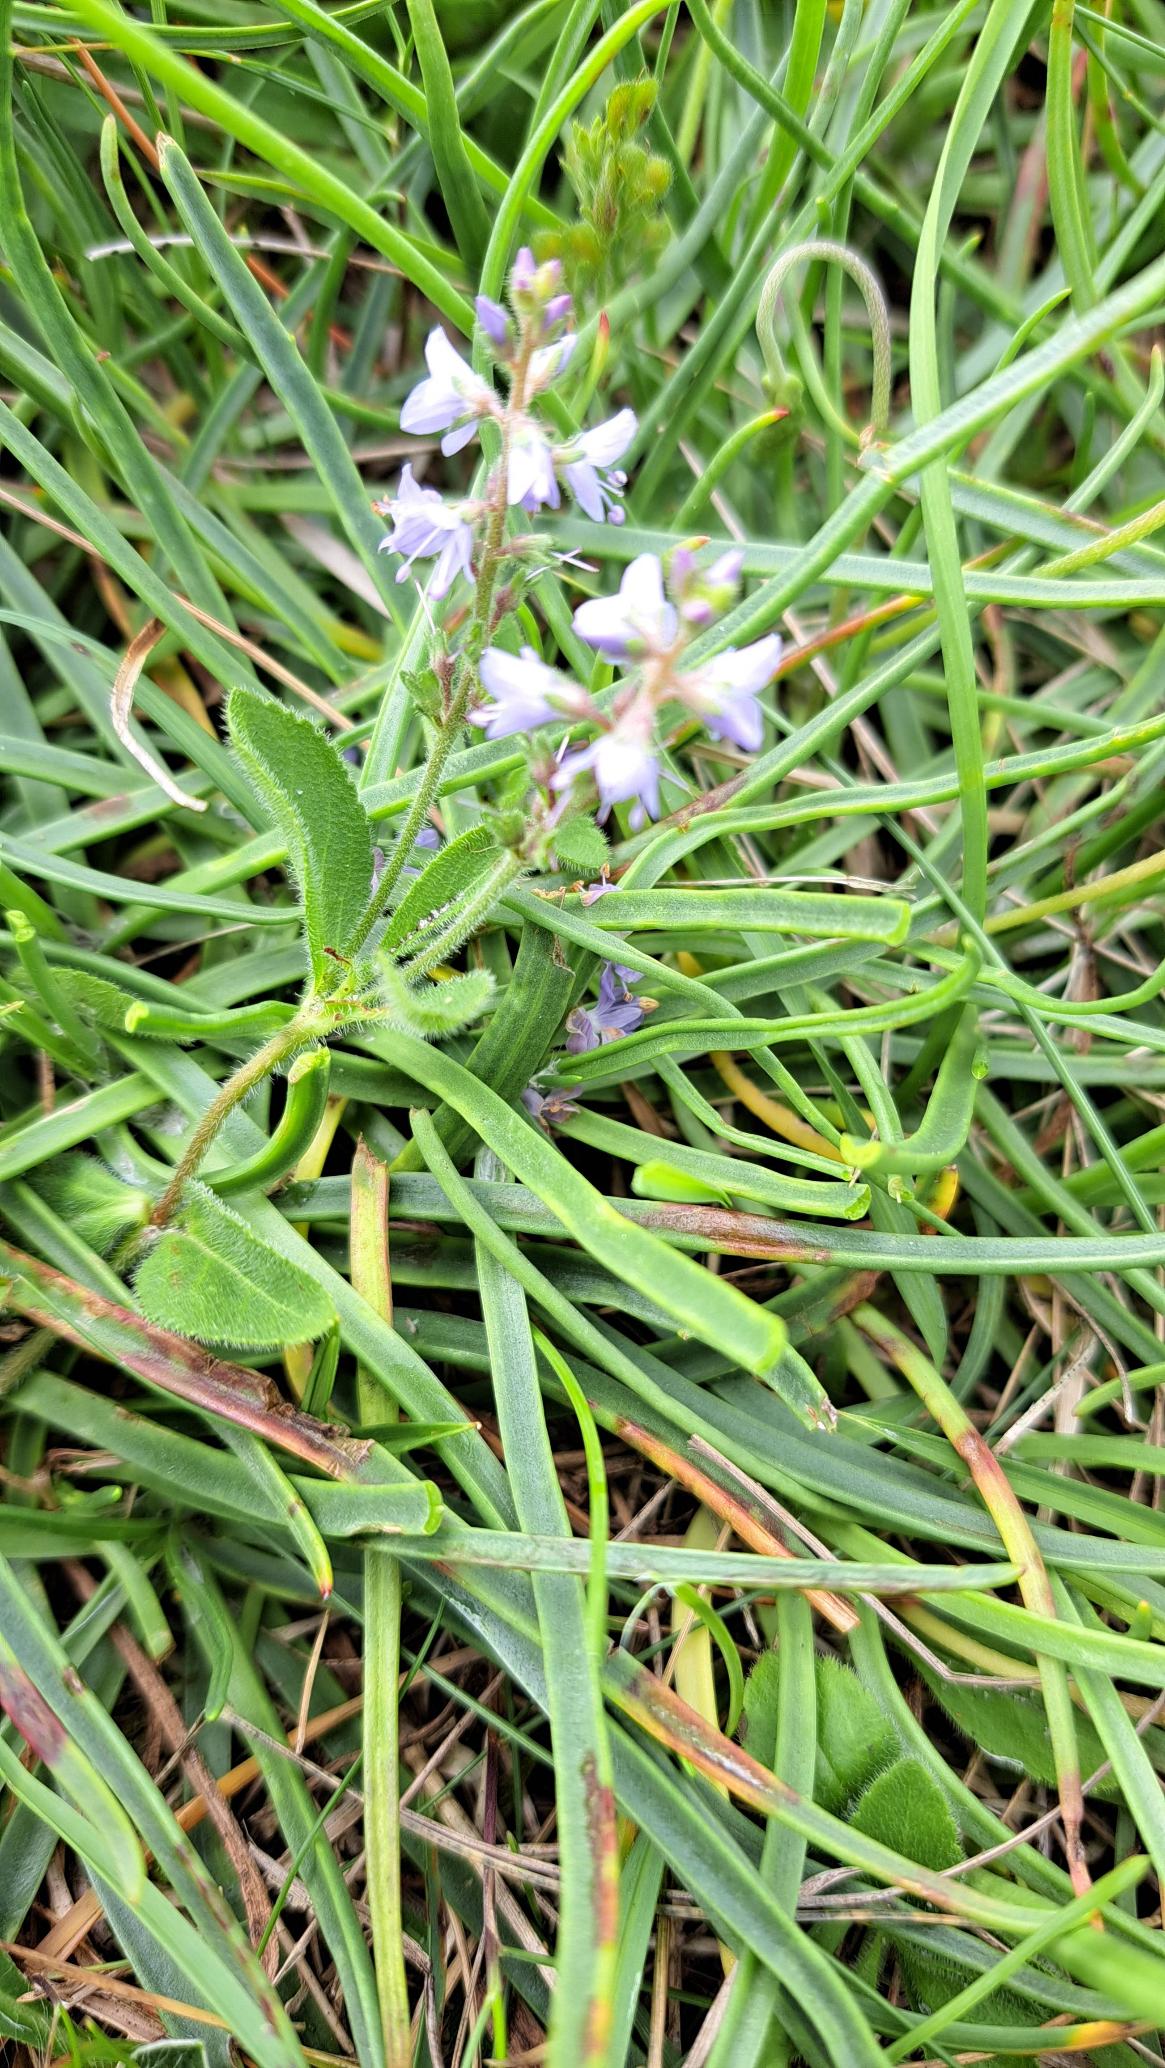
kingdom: Plantae
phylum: Tracheophyta
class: Magnoliopsida
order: Lamiales
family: Plantaginaceae
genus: Veronica
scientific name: Veronica officinalis
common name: Læge-ærenpris
